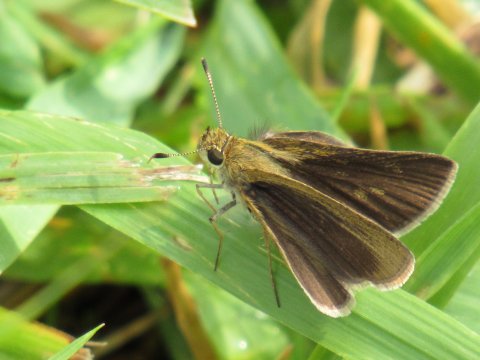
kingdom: Animalia
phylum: Arthropoda
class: Insecta
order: Lepidoptera
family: Hesperiidae
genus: Nastra
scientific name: Nastra lherminier
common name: Swarthy Skipper
